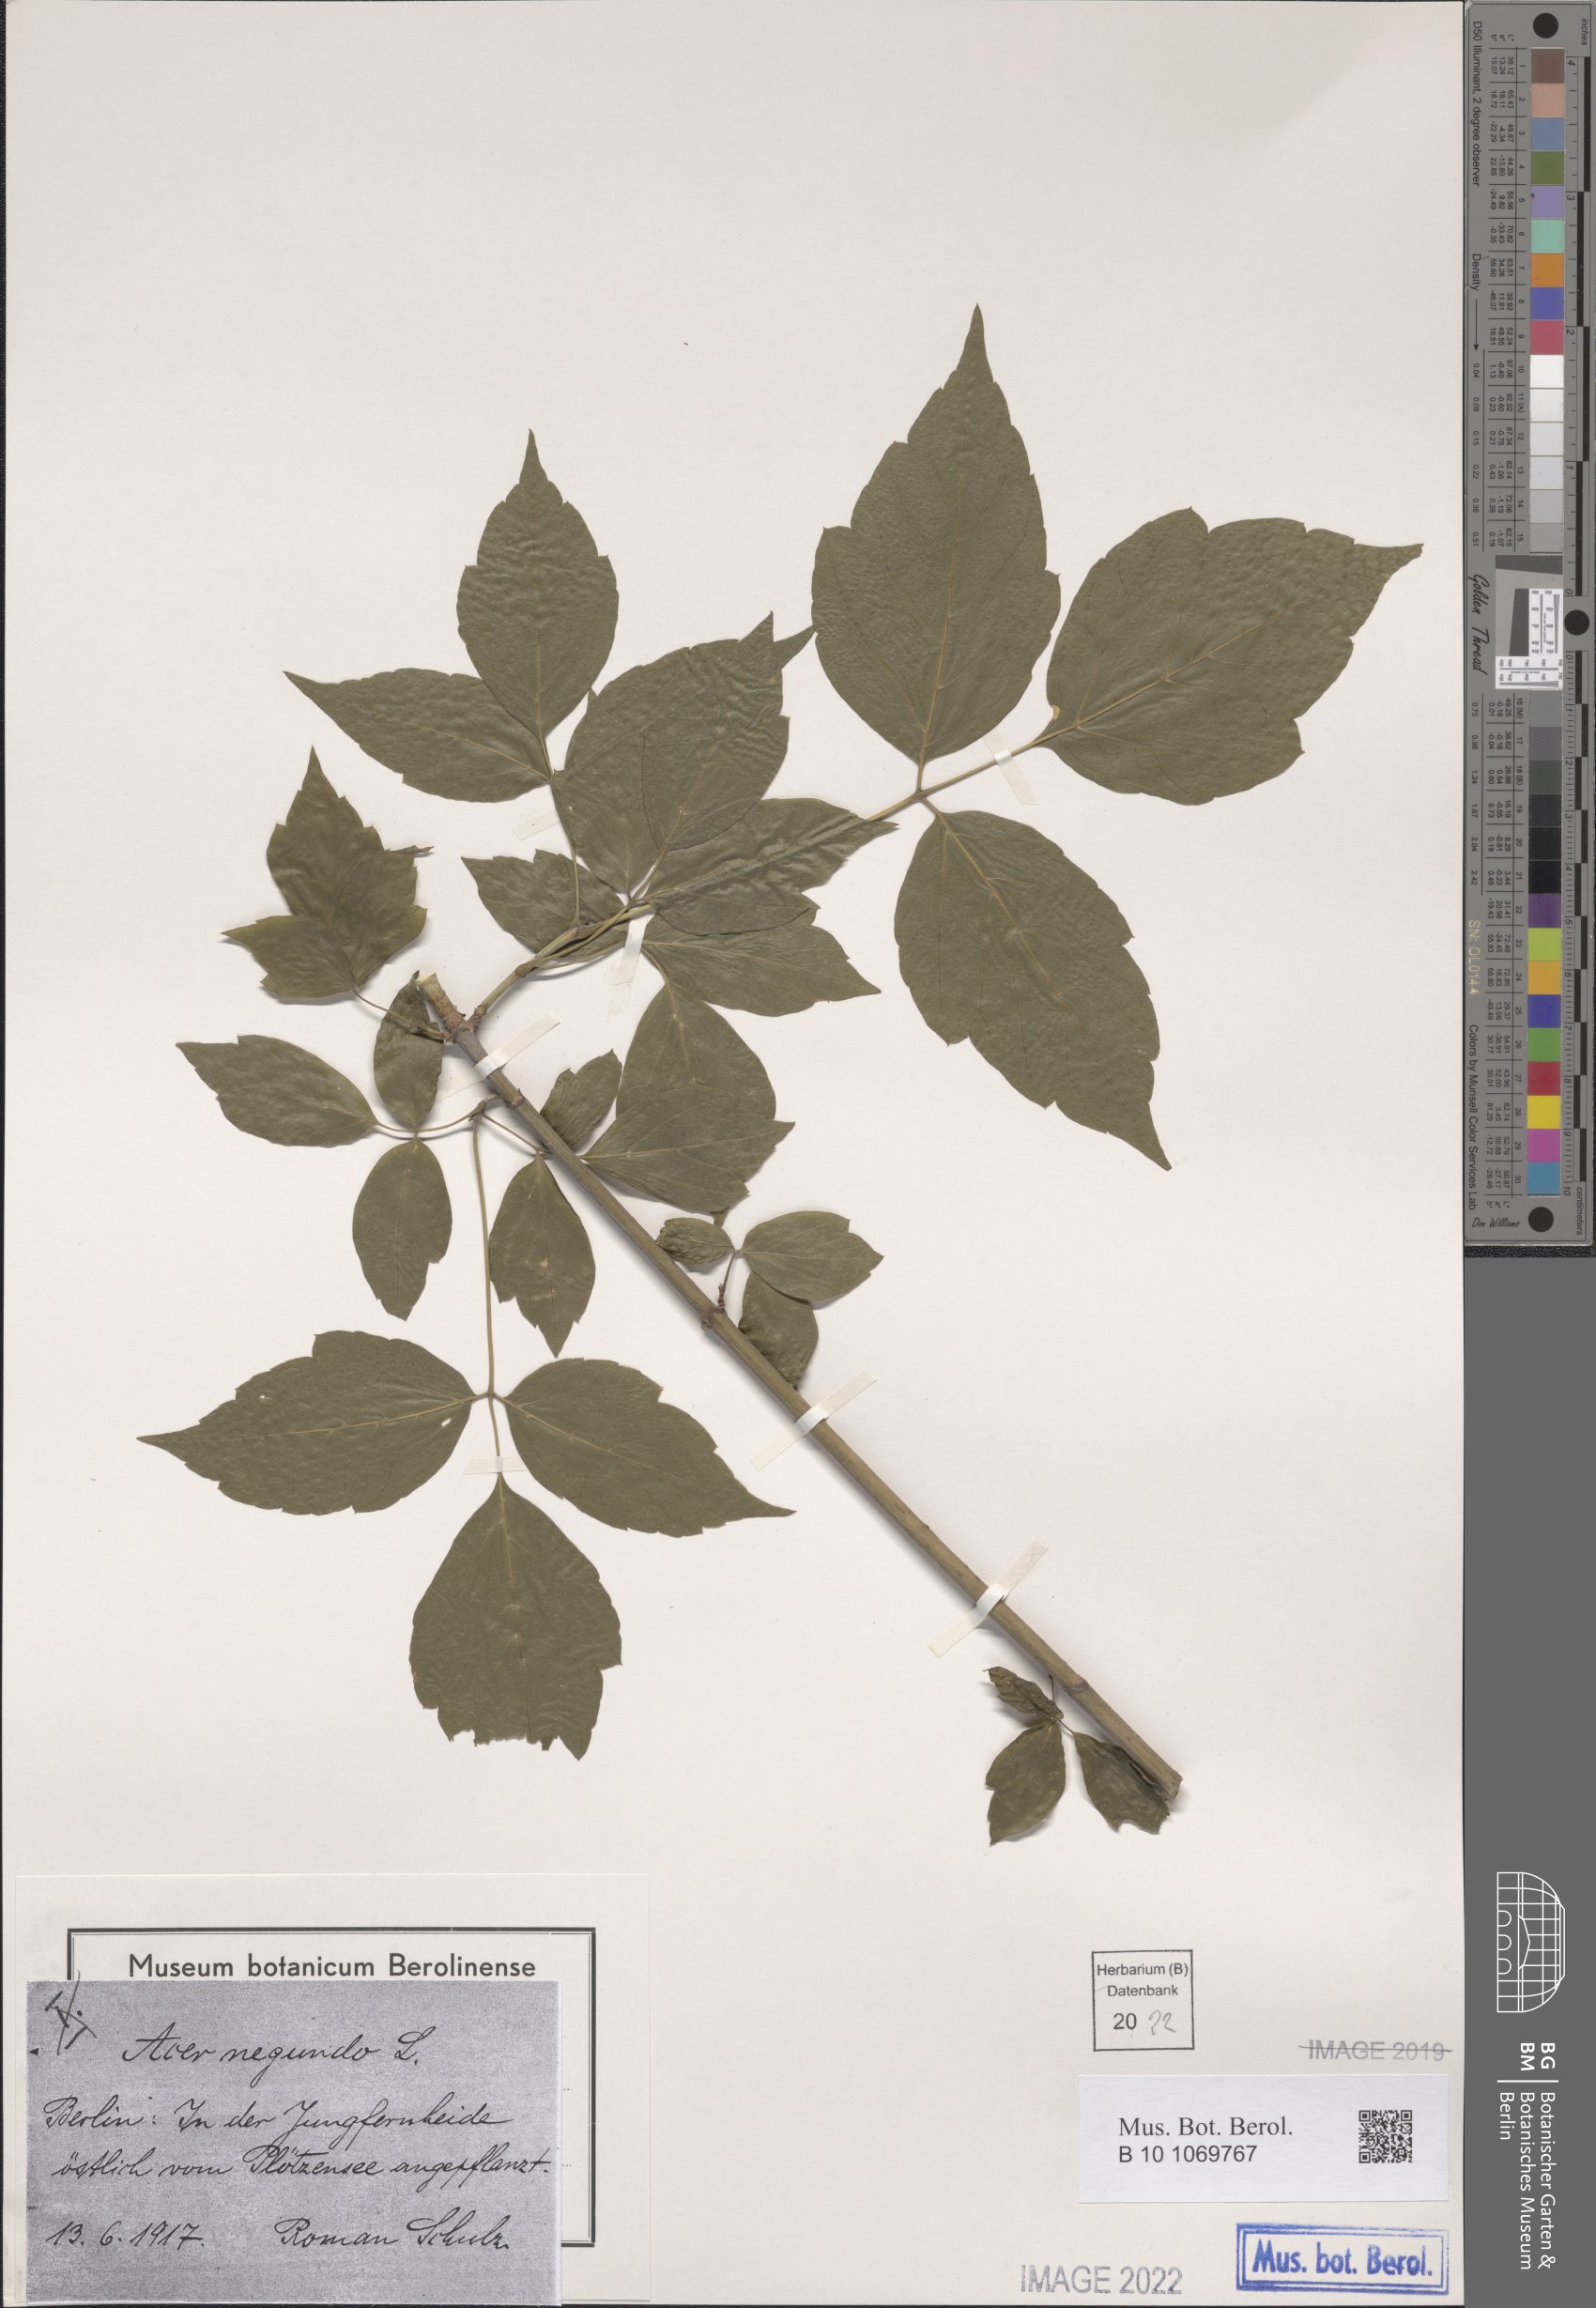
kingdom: Plantae
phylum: Tracheophyta
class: Magnoliopsida
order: Sapindales
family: Sapindaceae
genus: Acer
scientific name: Acer negundo
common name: Ashleaf maple
